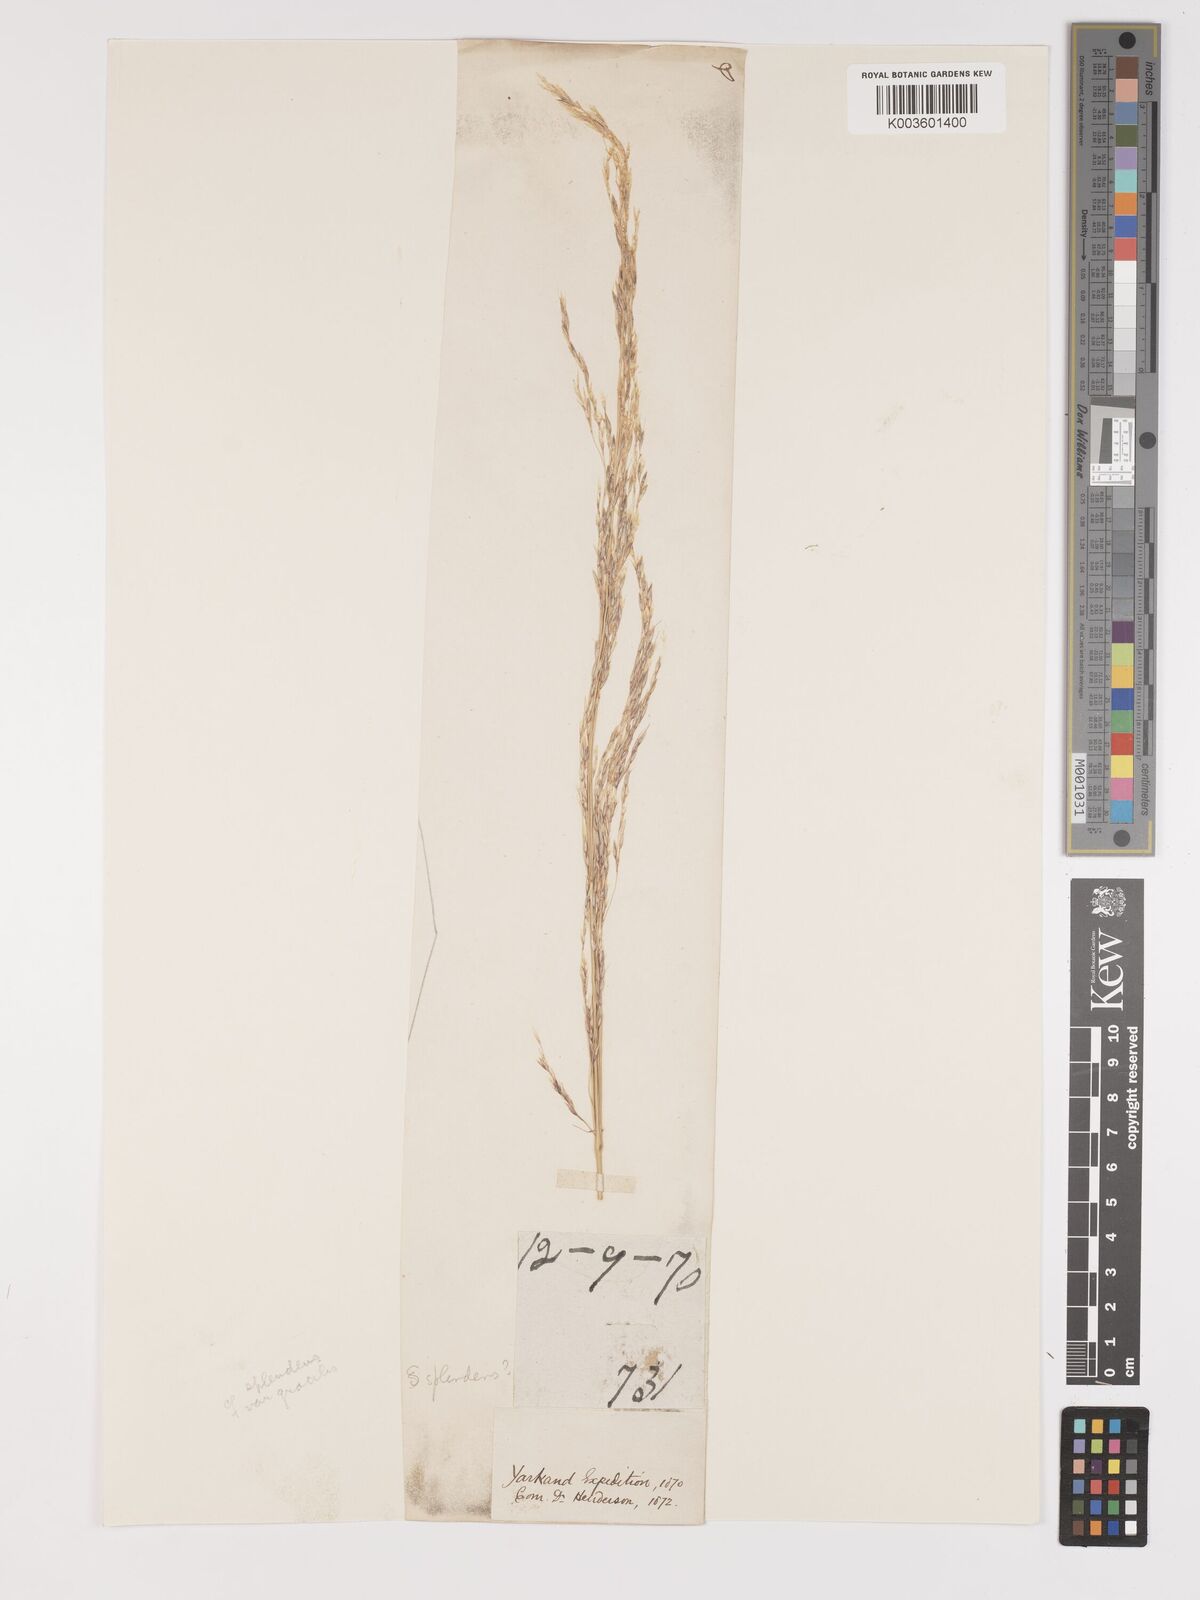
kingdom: Plantae
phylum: Tracheophyta
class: Liliopsida
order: Poales
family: Poaceae
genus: Neotrinia
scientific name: Neotrinia splendens
